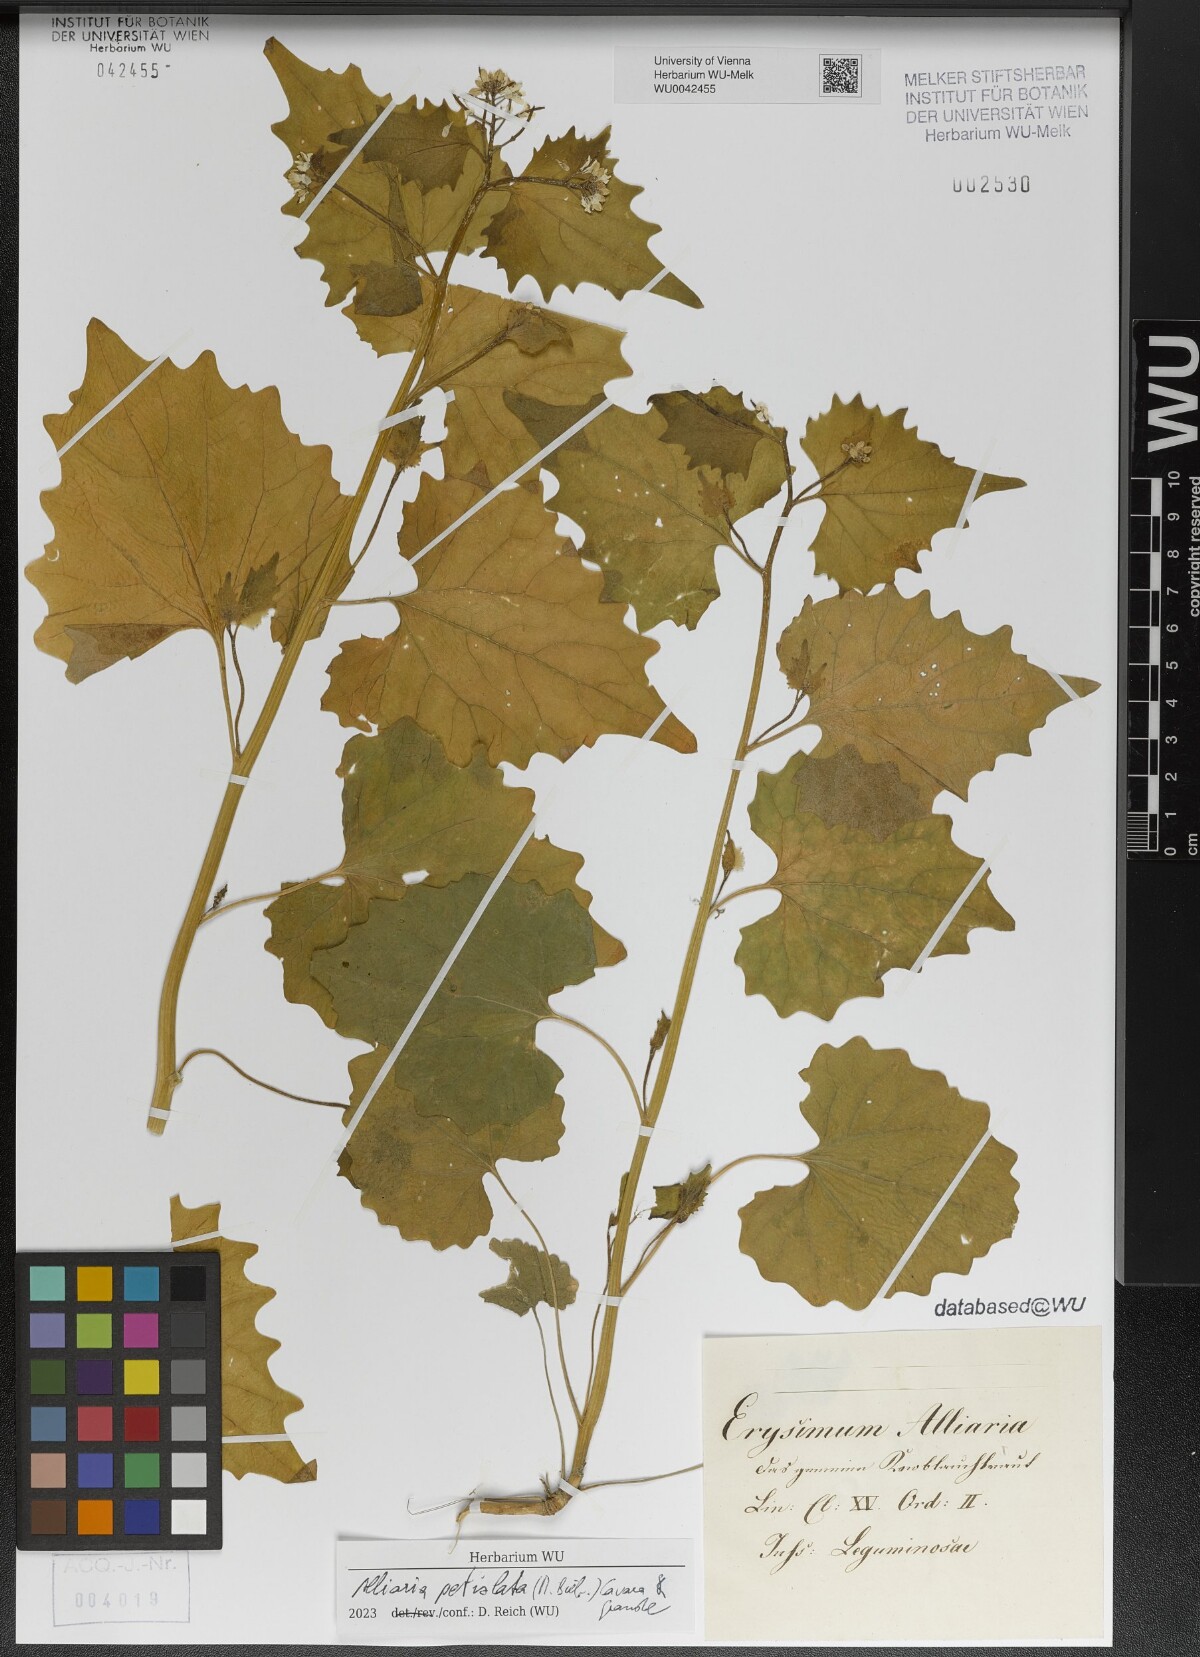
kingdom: Plantae
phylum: Tracheophyta
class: Magnoliopsida
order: Brassicales
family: Brassicaceae
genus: Alliaria
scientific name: Alliaria petiolata
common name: Garlic mustard
